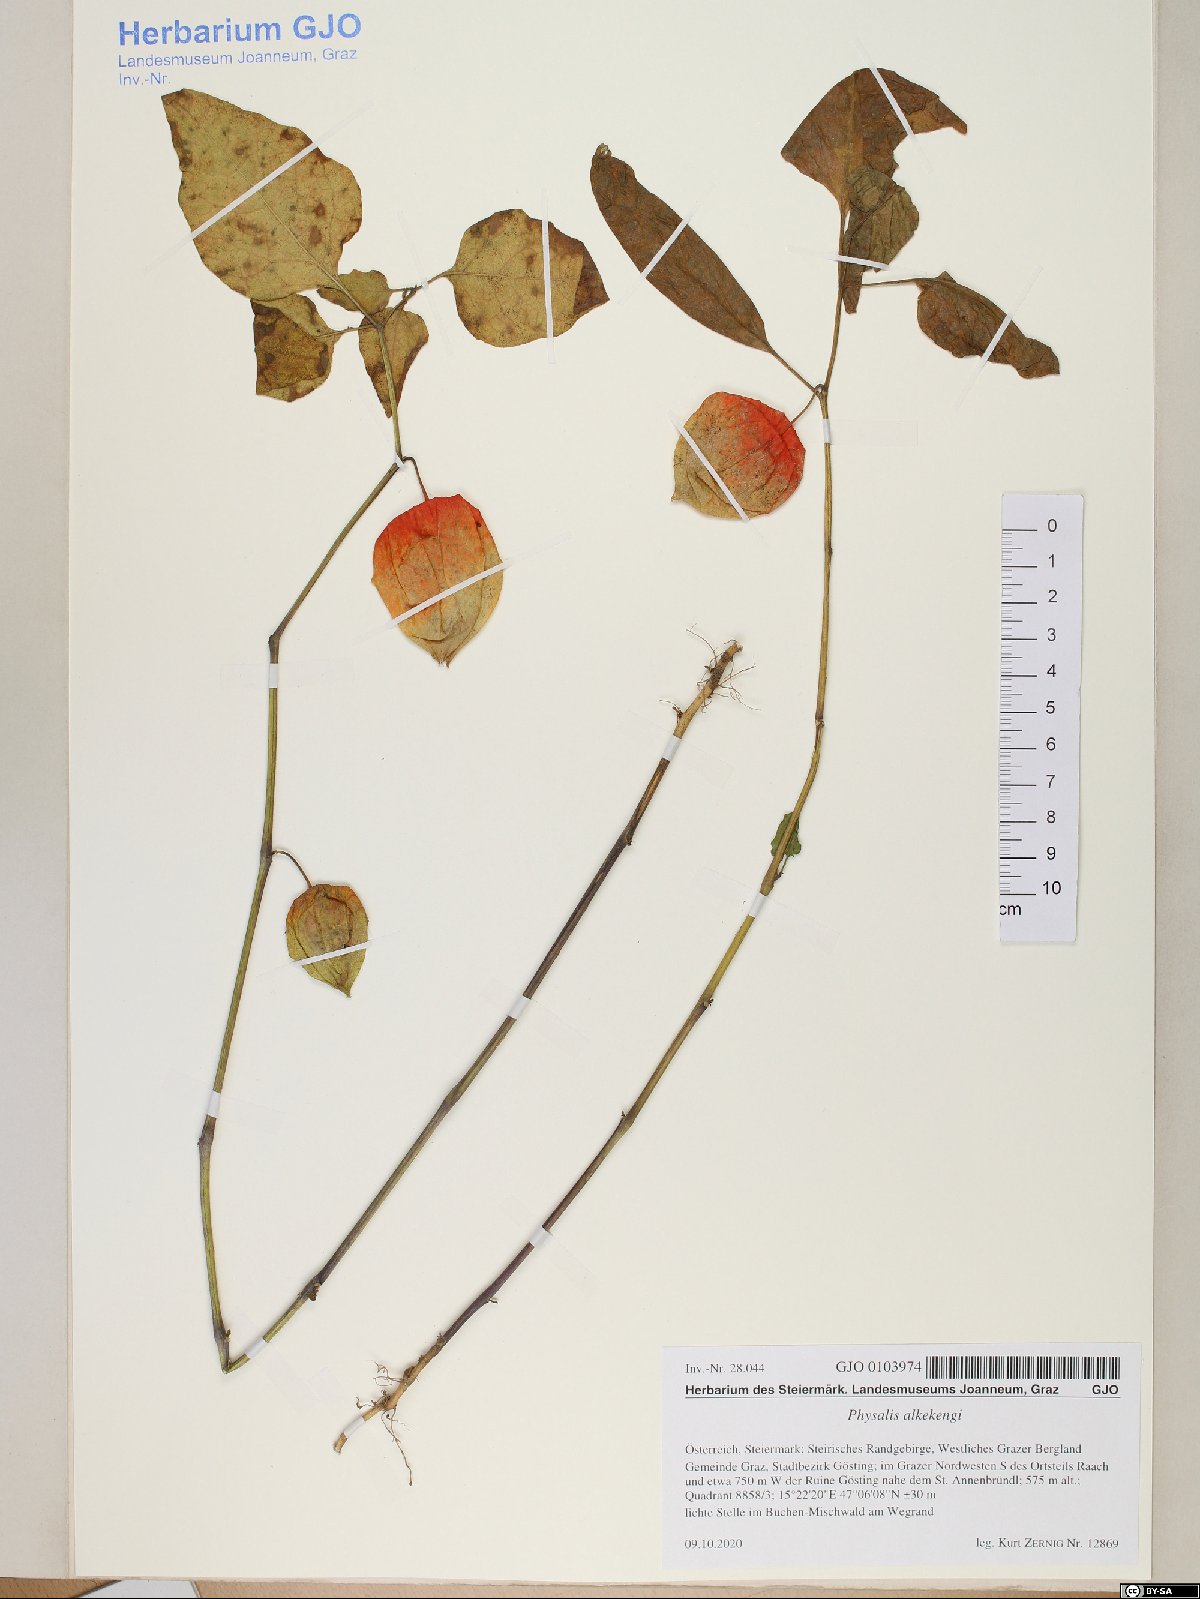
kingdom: Plantae
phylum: Tracheophyta
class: Magnoliopsida
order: Solanales
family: Solanaceae
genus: Alkekengi
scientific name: Alkekengi officinarum
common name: Japanese-lantern
